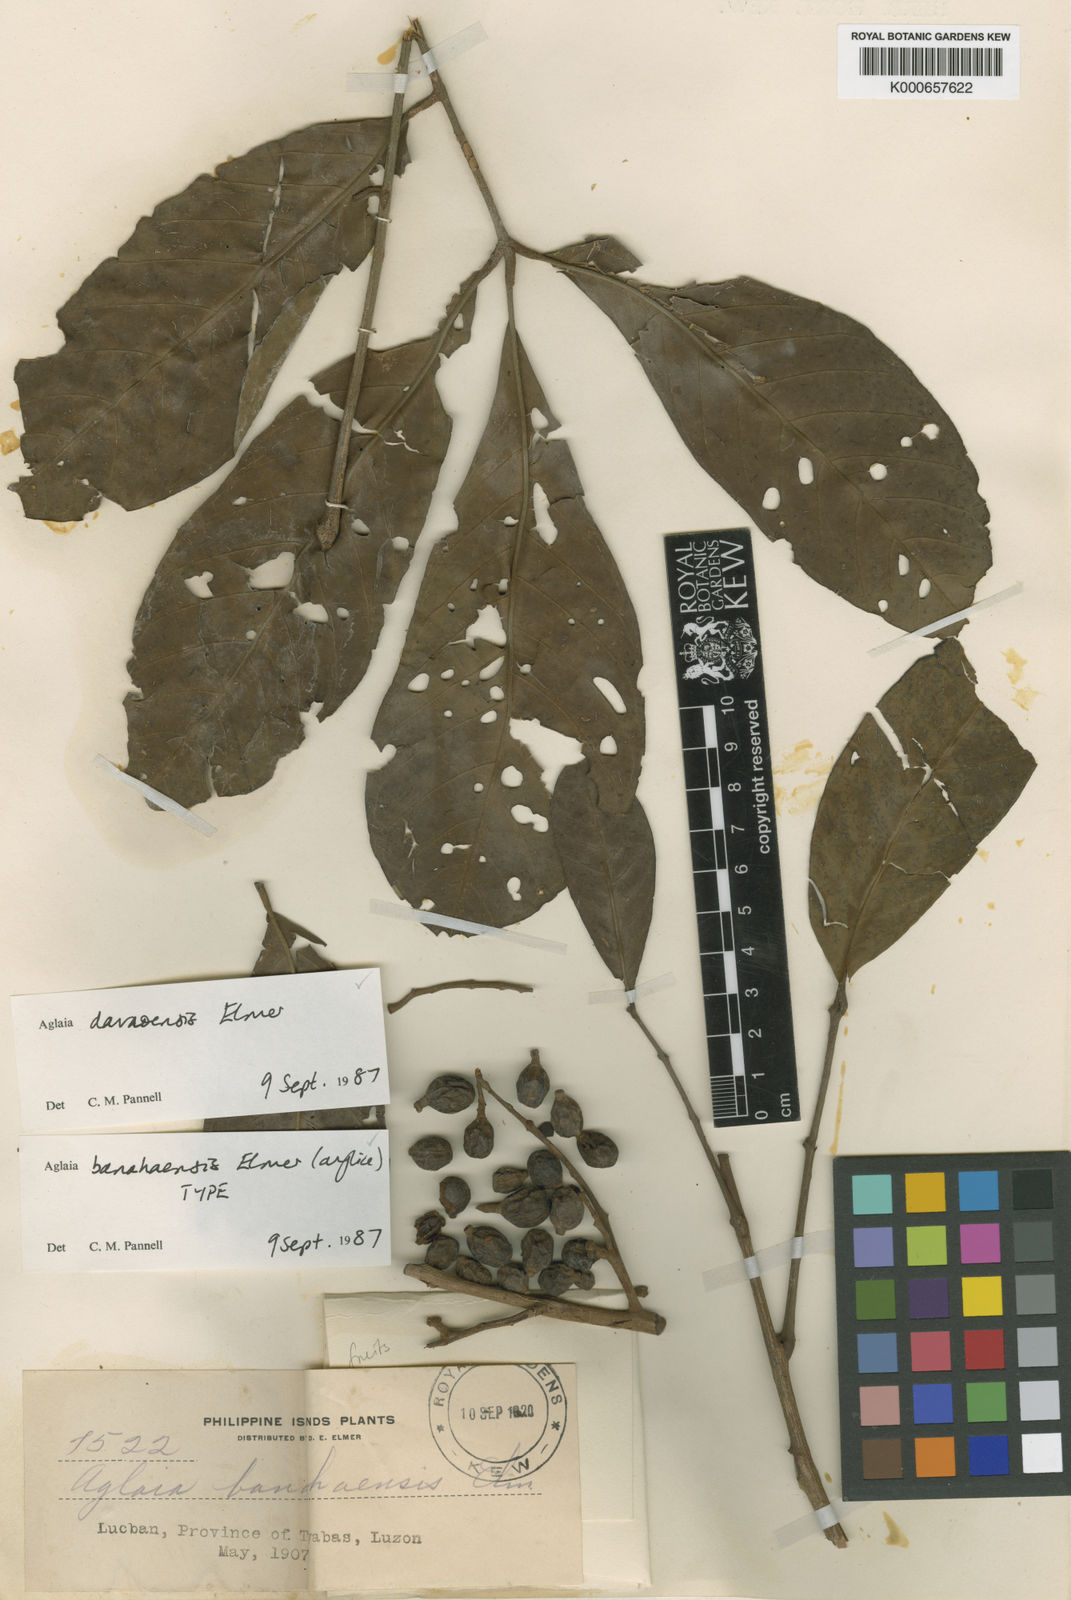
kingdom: Plantae
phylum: Tracheophyta
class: Magnoliopsida
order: Sapindales
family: Meliaceae
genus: Aglaia
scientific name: Aglaia elliptica
